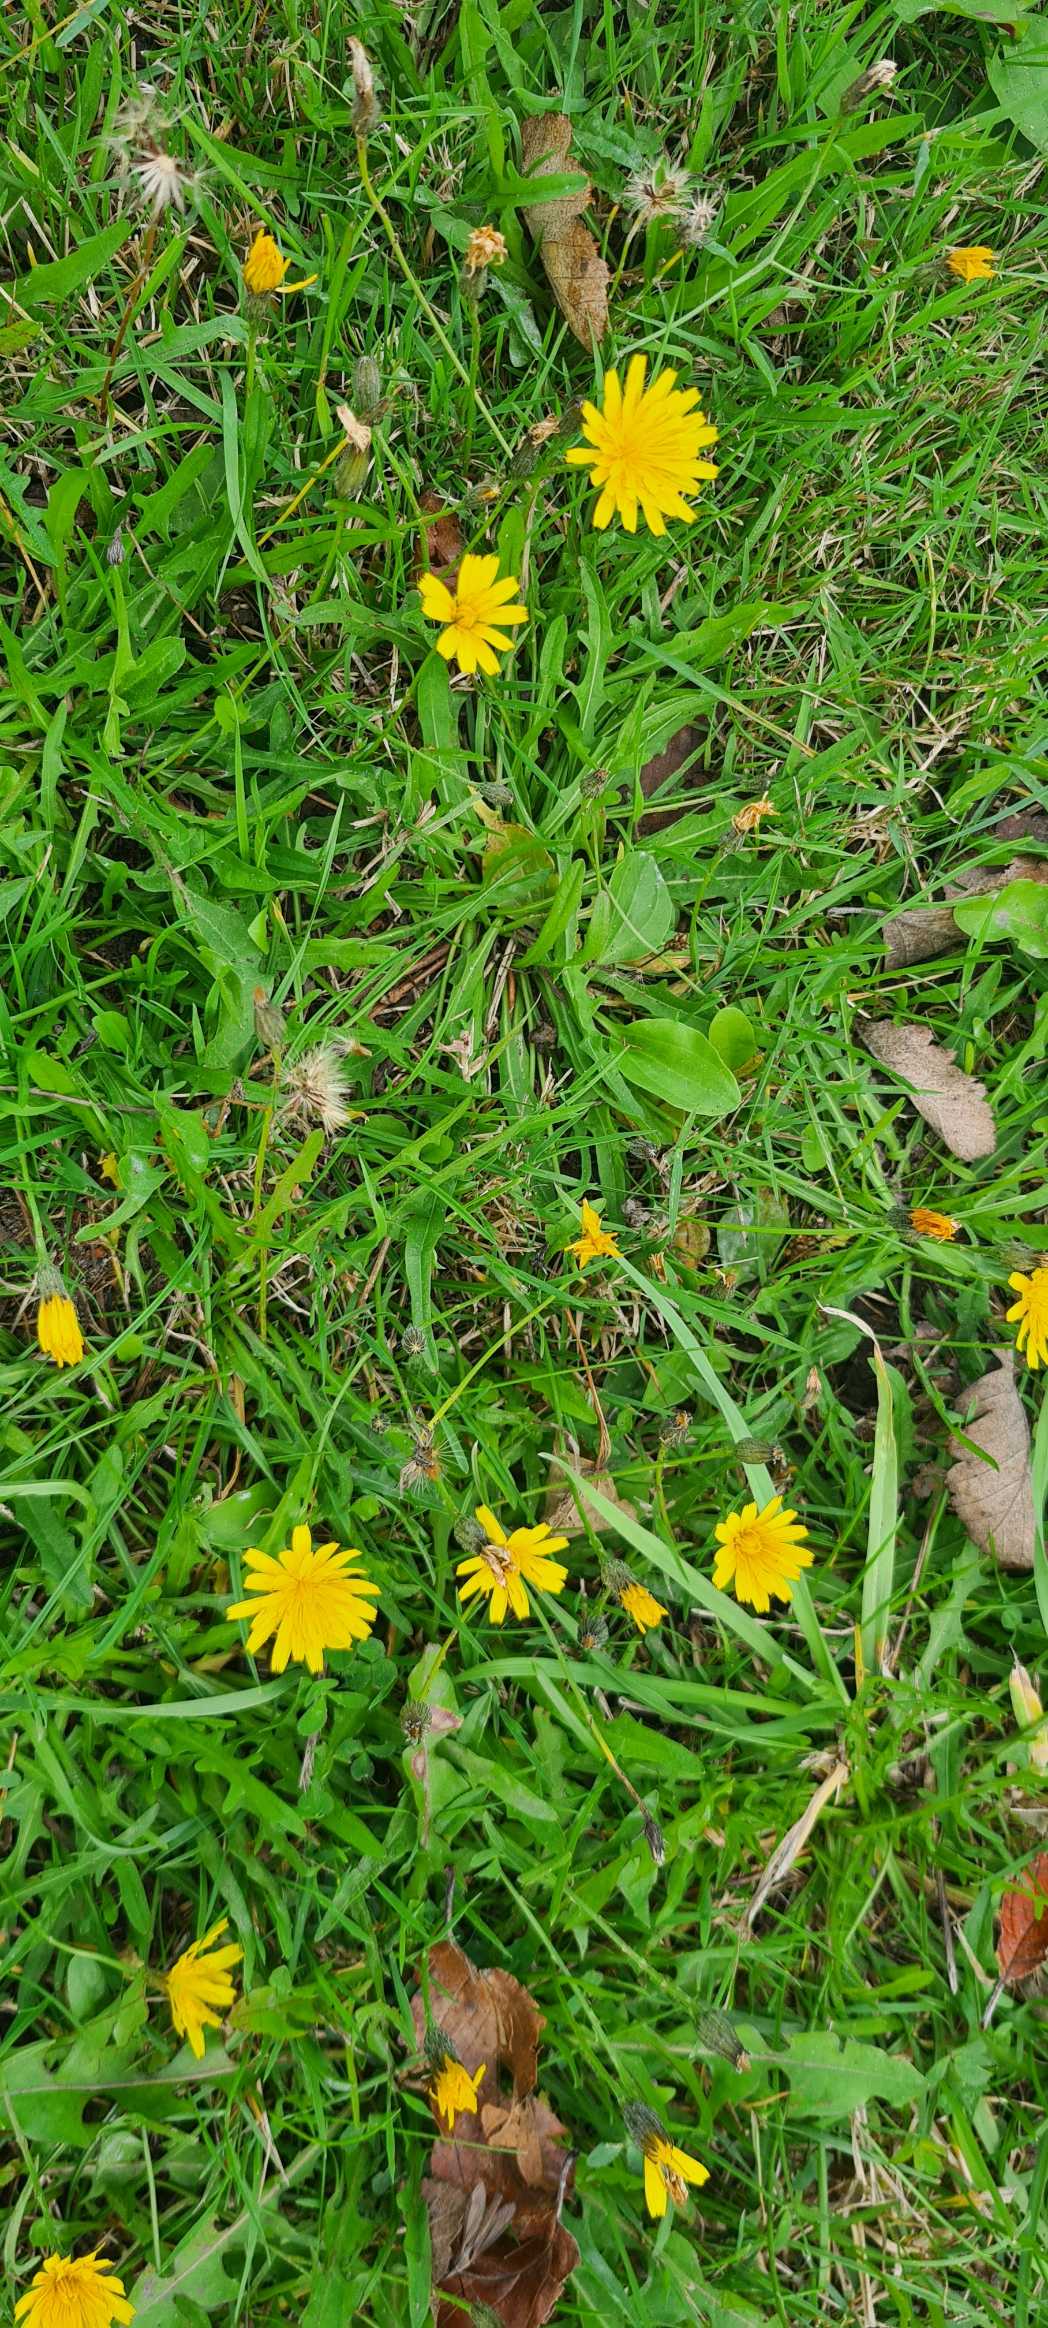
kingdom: Plantae
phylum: Tracheophyta
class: Magnoliopsida
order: Asterales
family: Asteraceae
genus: Scorzoneroides
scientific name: Scorzoneroides autumnalis
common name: Høst-borst
